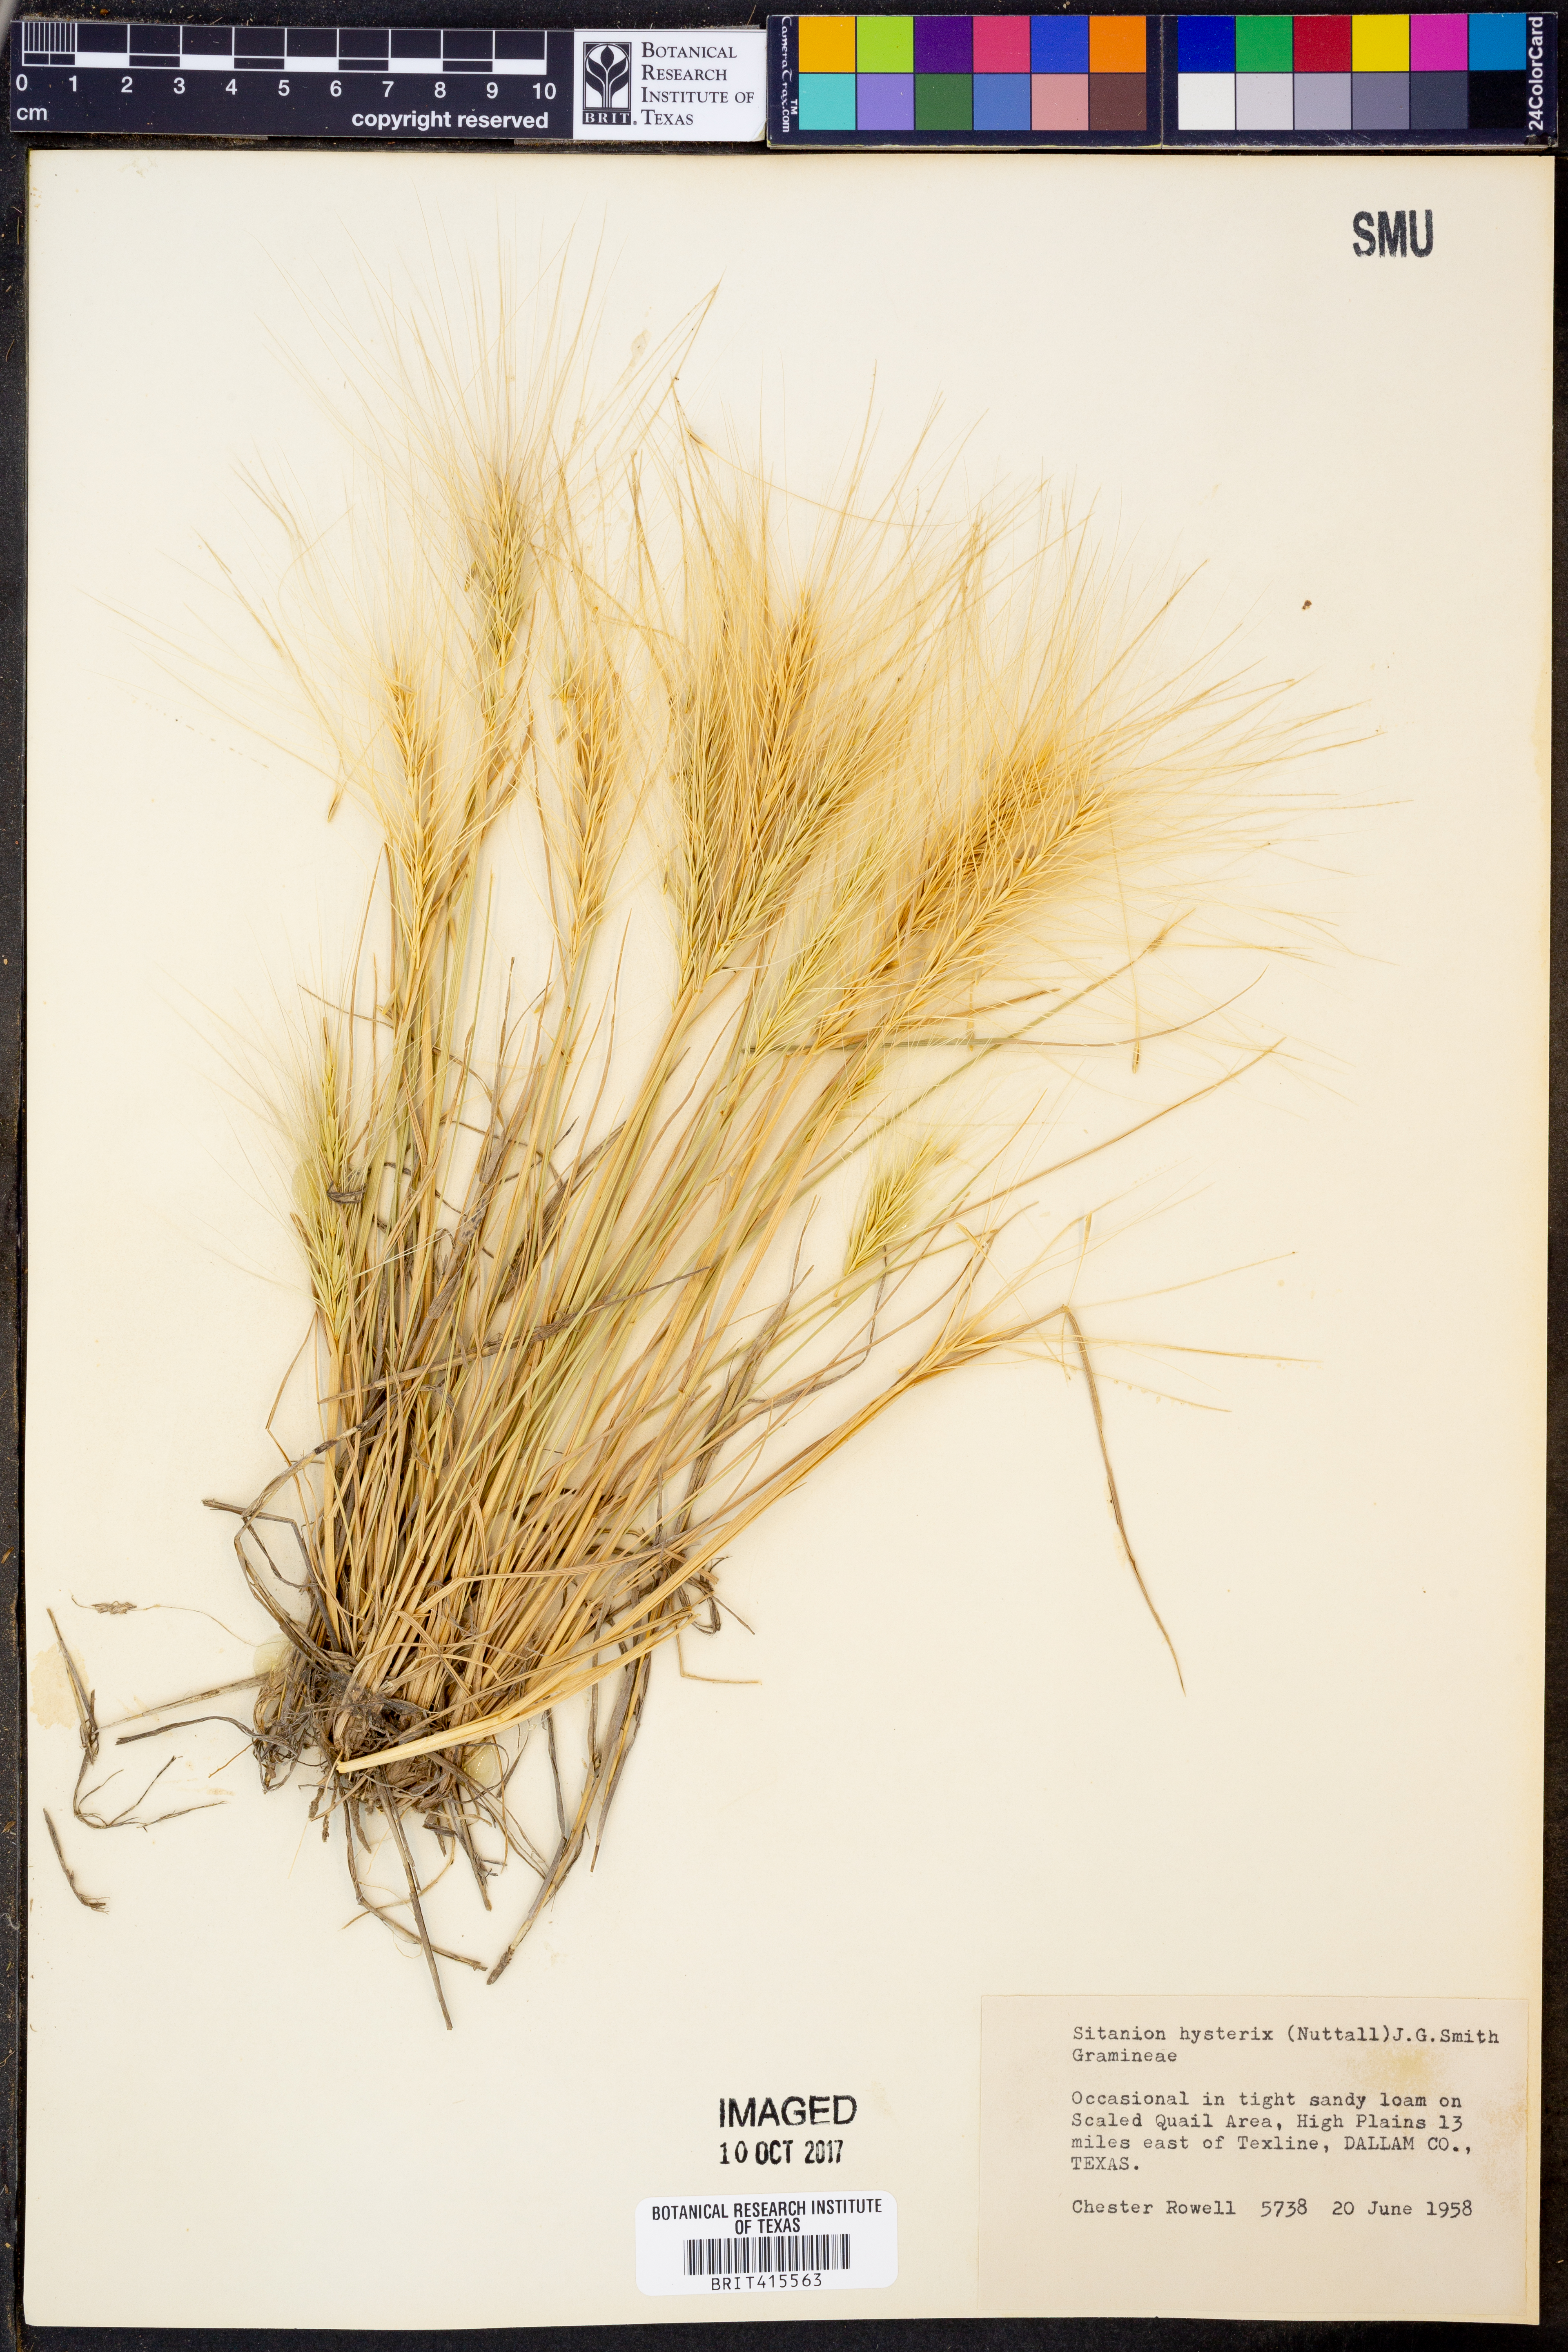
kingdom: Plantae
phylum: Tracheophyta
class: Liliopsida
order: Poales
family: Poaceae
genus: Elymus
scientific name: Elymus elymoides
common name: Bottlebrush squirreltail
